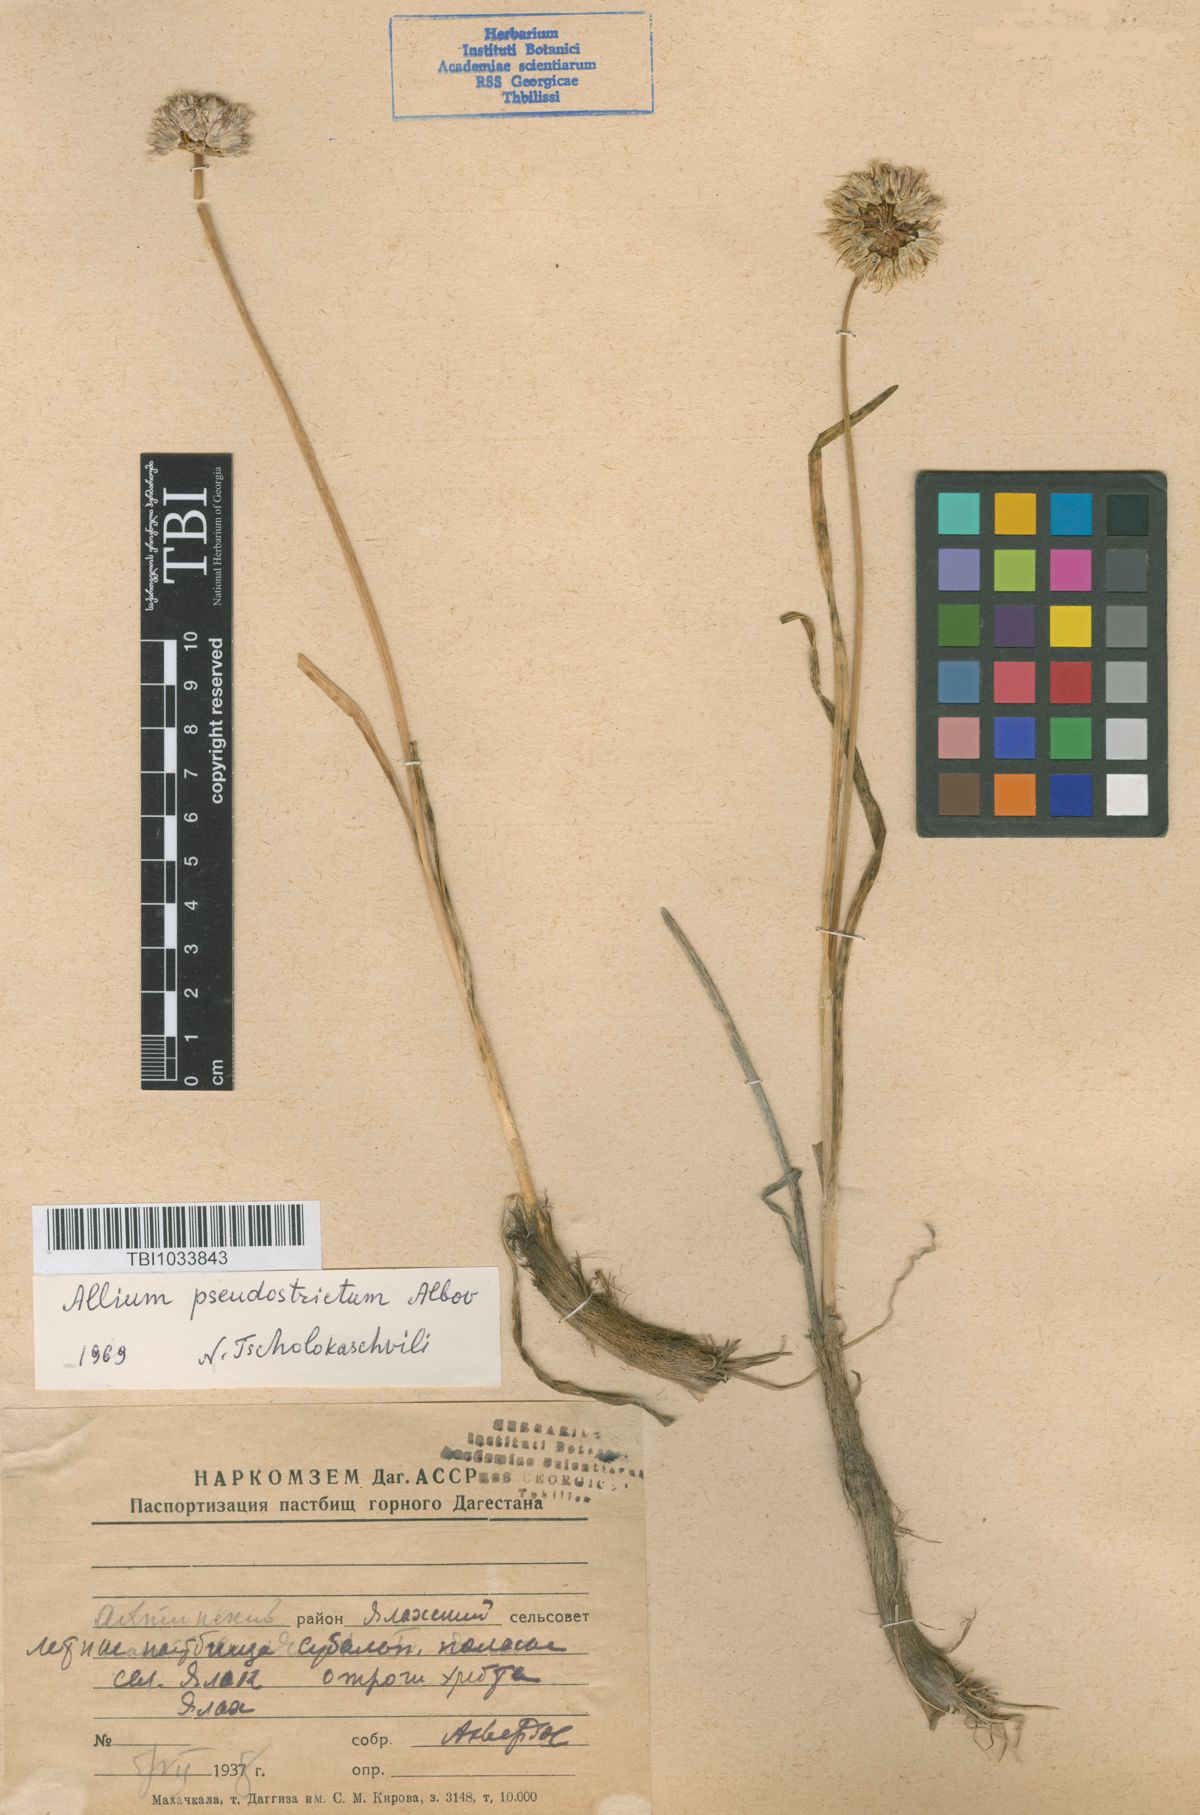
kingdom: Plantae
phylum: Tracheophyta
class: Liliopsida
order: Asparagales
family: Amaryllidaceae
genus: Allium
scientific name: Allium pseudostrictum
